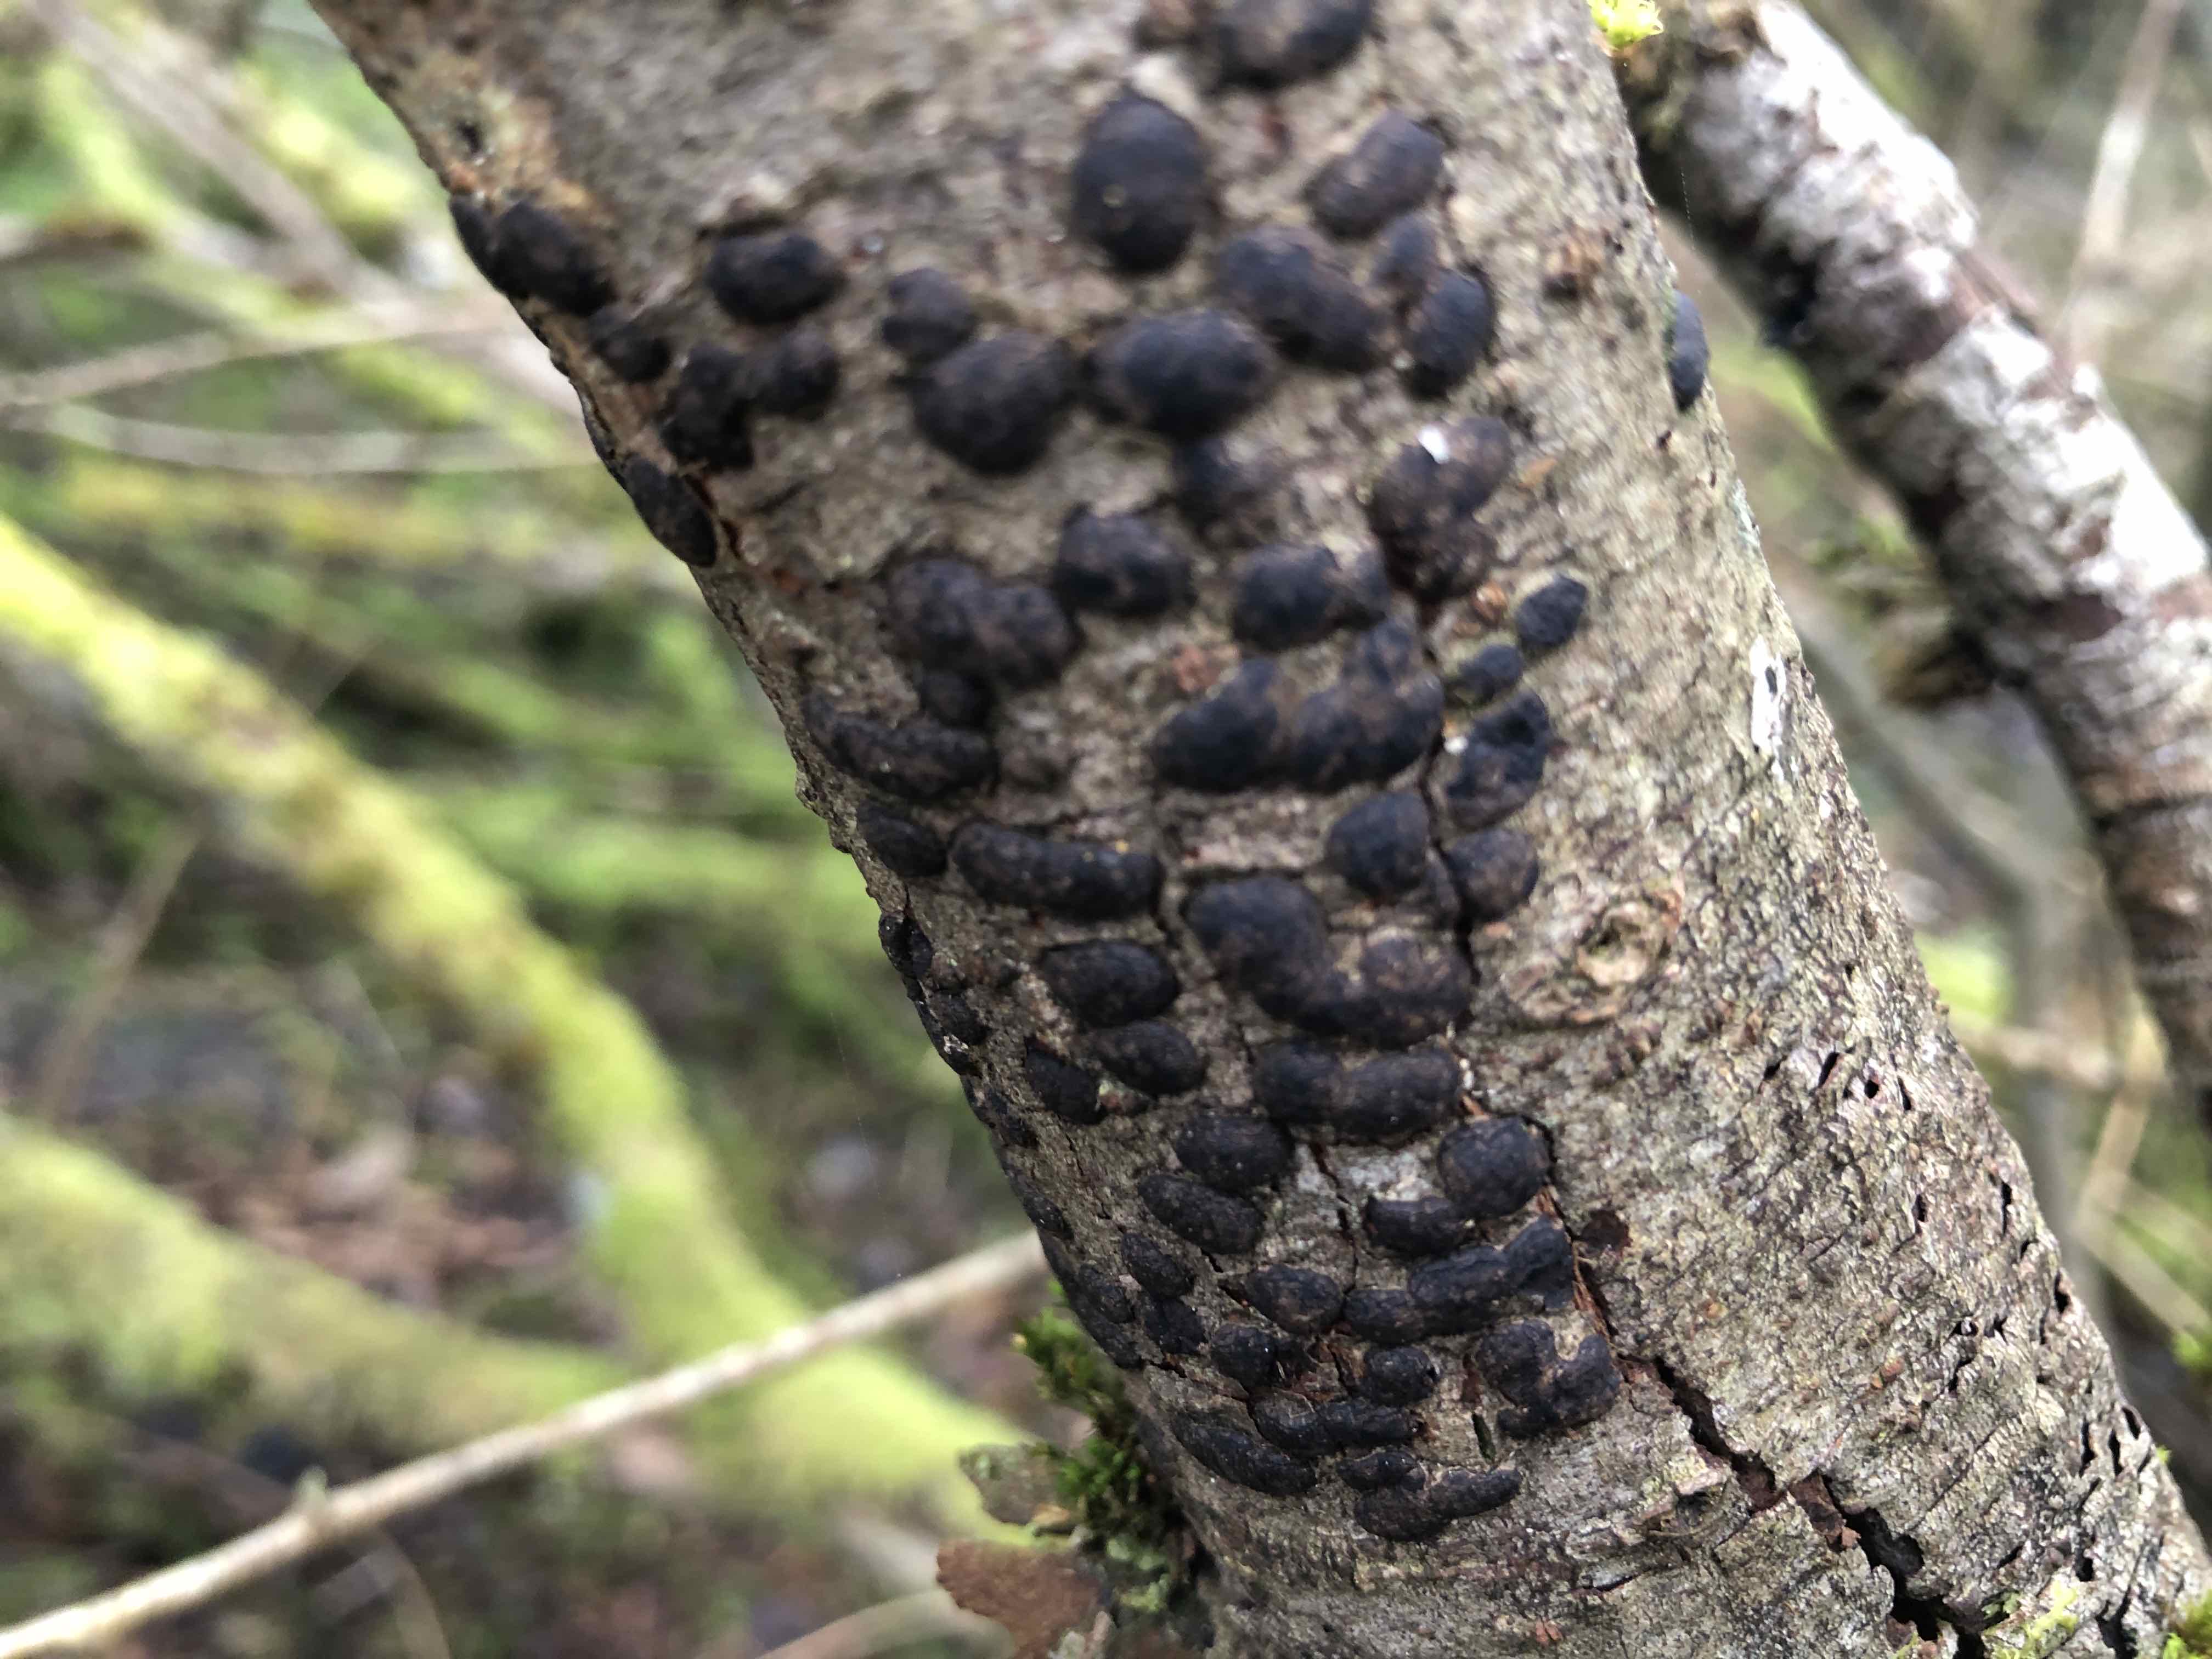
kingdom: Fungi
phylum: Ascomycota
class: Sordariomycetes
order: Xylariales
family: Diatrypaceae
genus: Diatrype
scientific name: Diatrype bullata
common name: pile-kulskorpe
